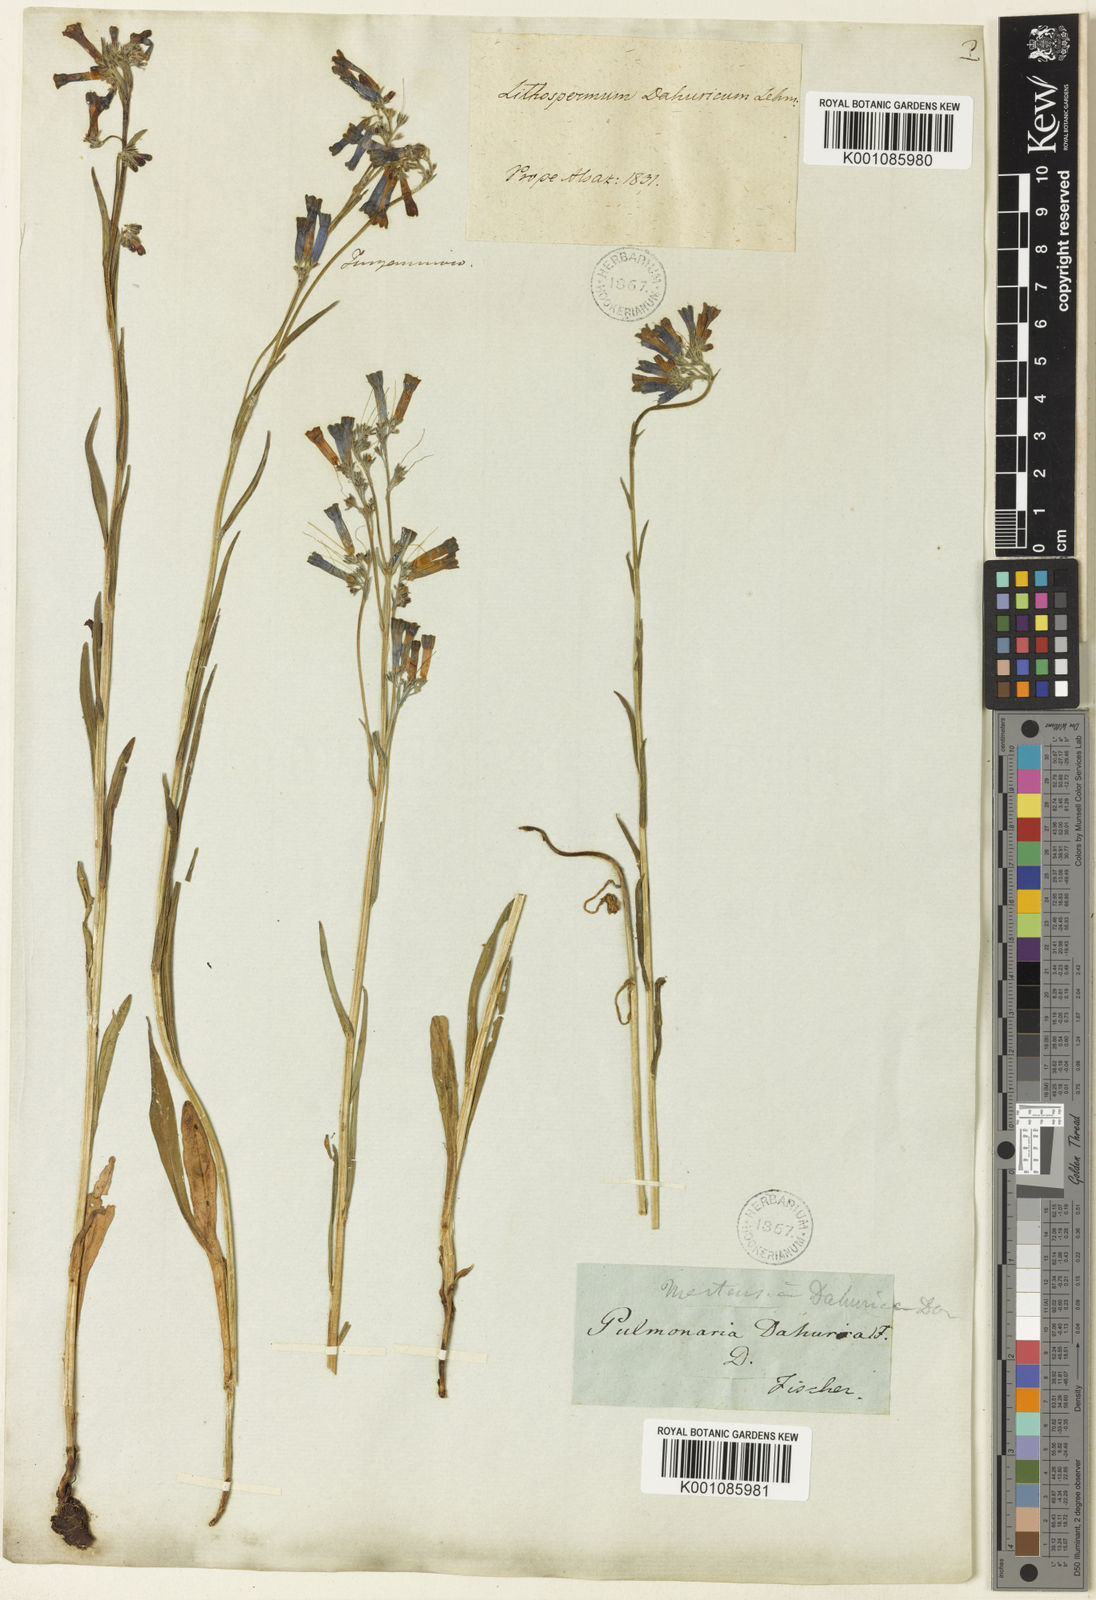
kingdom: Plantae
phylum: Tracheophyta
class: Magnoliopsida
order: Boraginales
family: Boraginaceae
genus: Lithospermum
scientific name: Lithospermum
